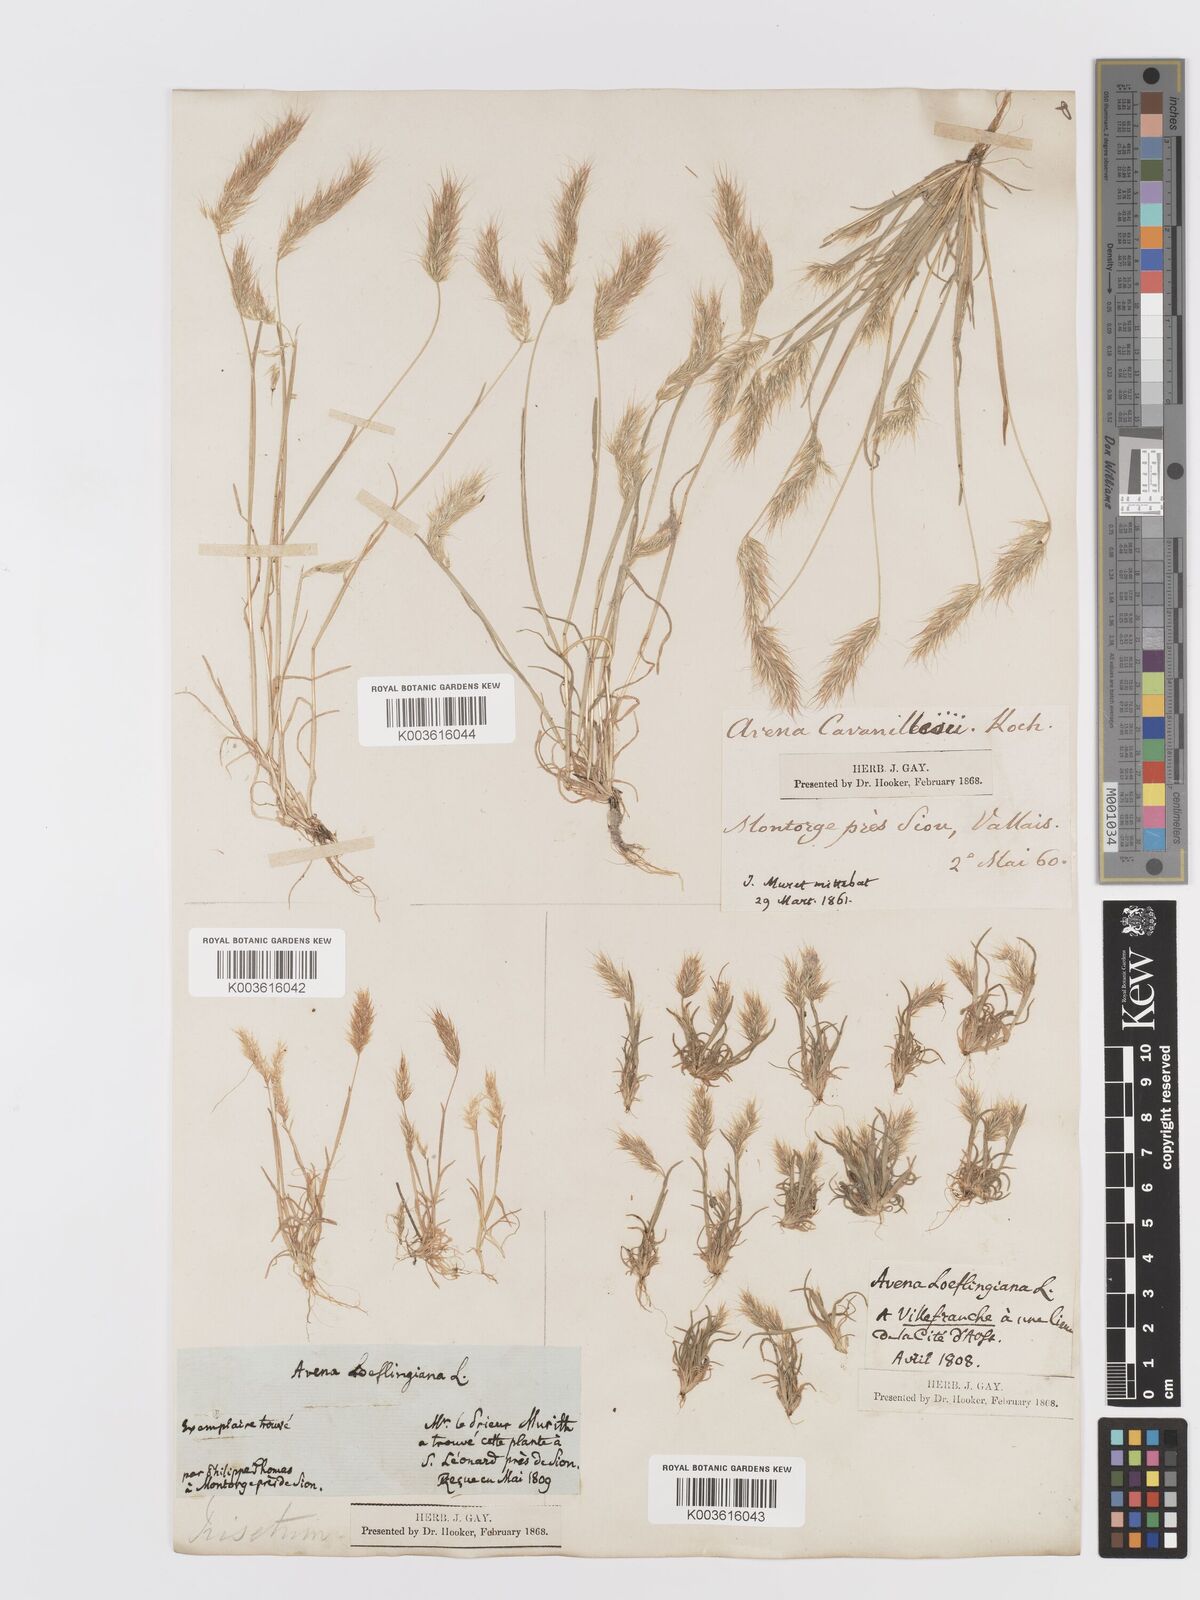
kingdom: Plantae
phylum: Tracheophyta
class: Liliopsida
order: Poales
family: Poaceae
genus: Trisetaria
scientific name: Trisetaria loeflingiana
